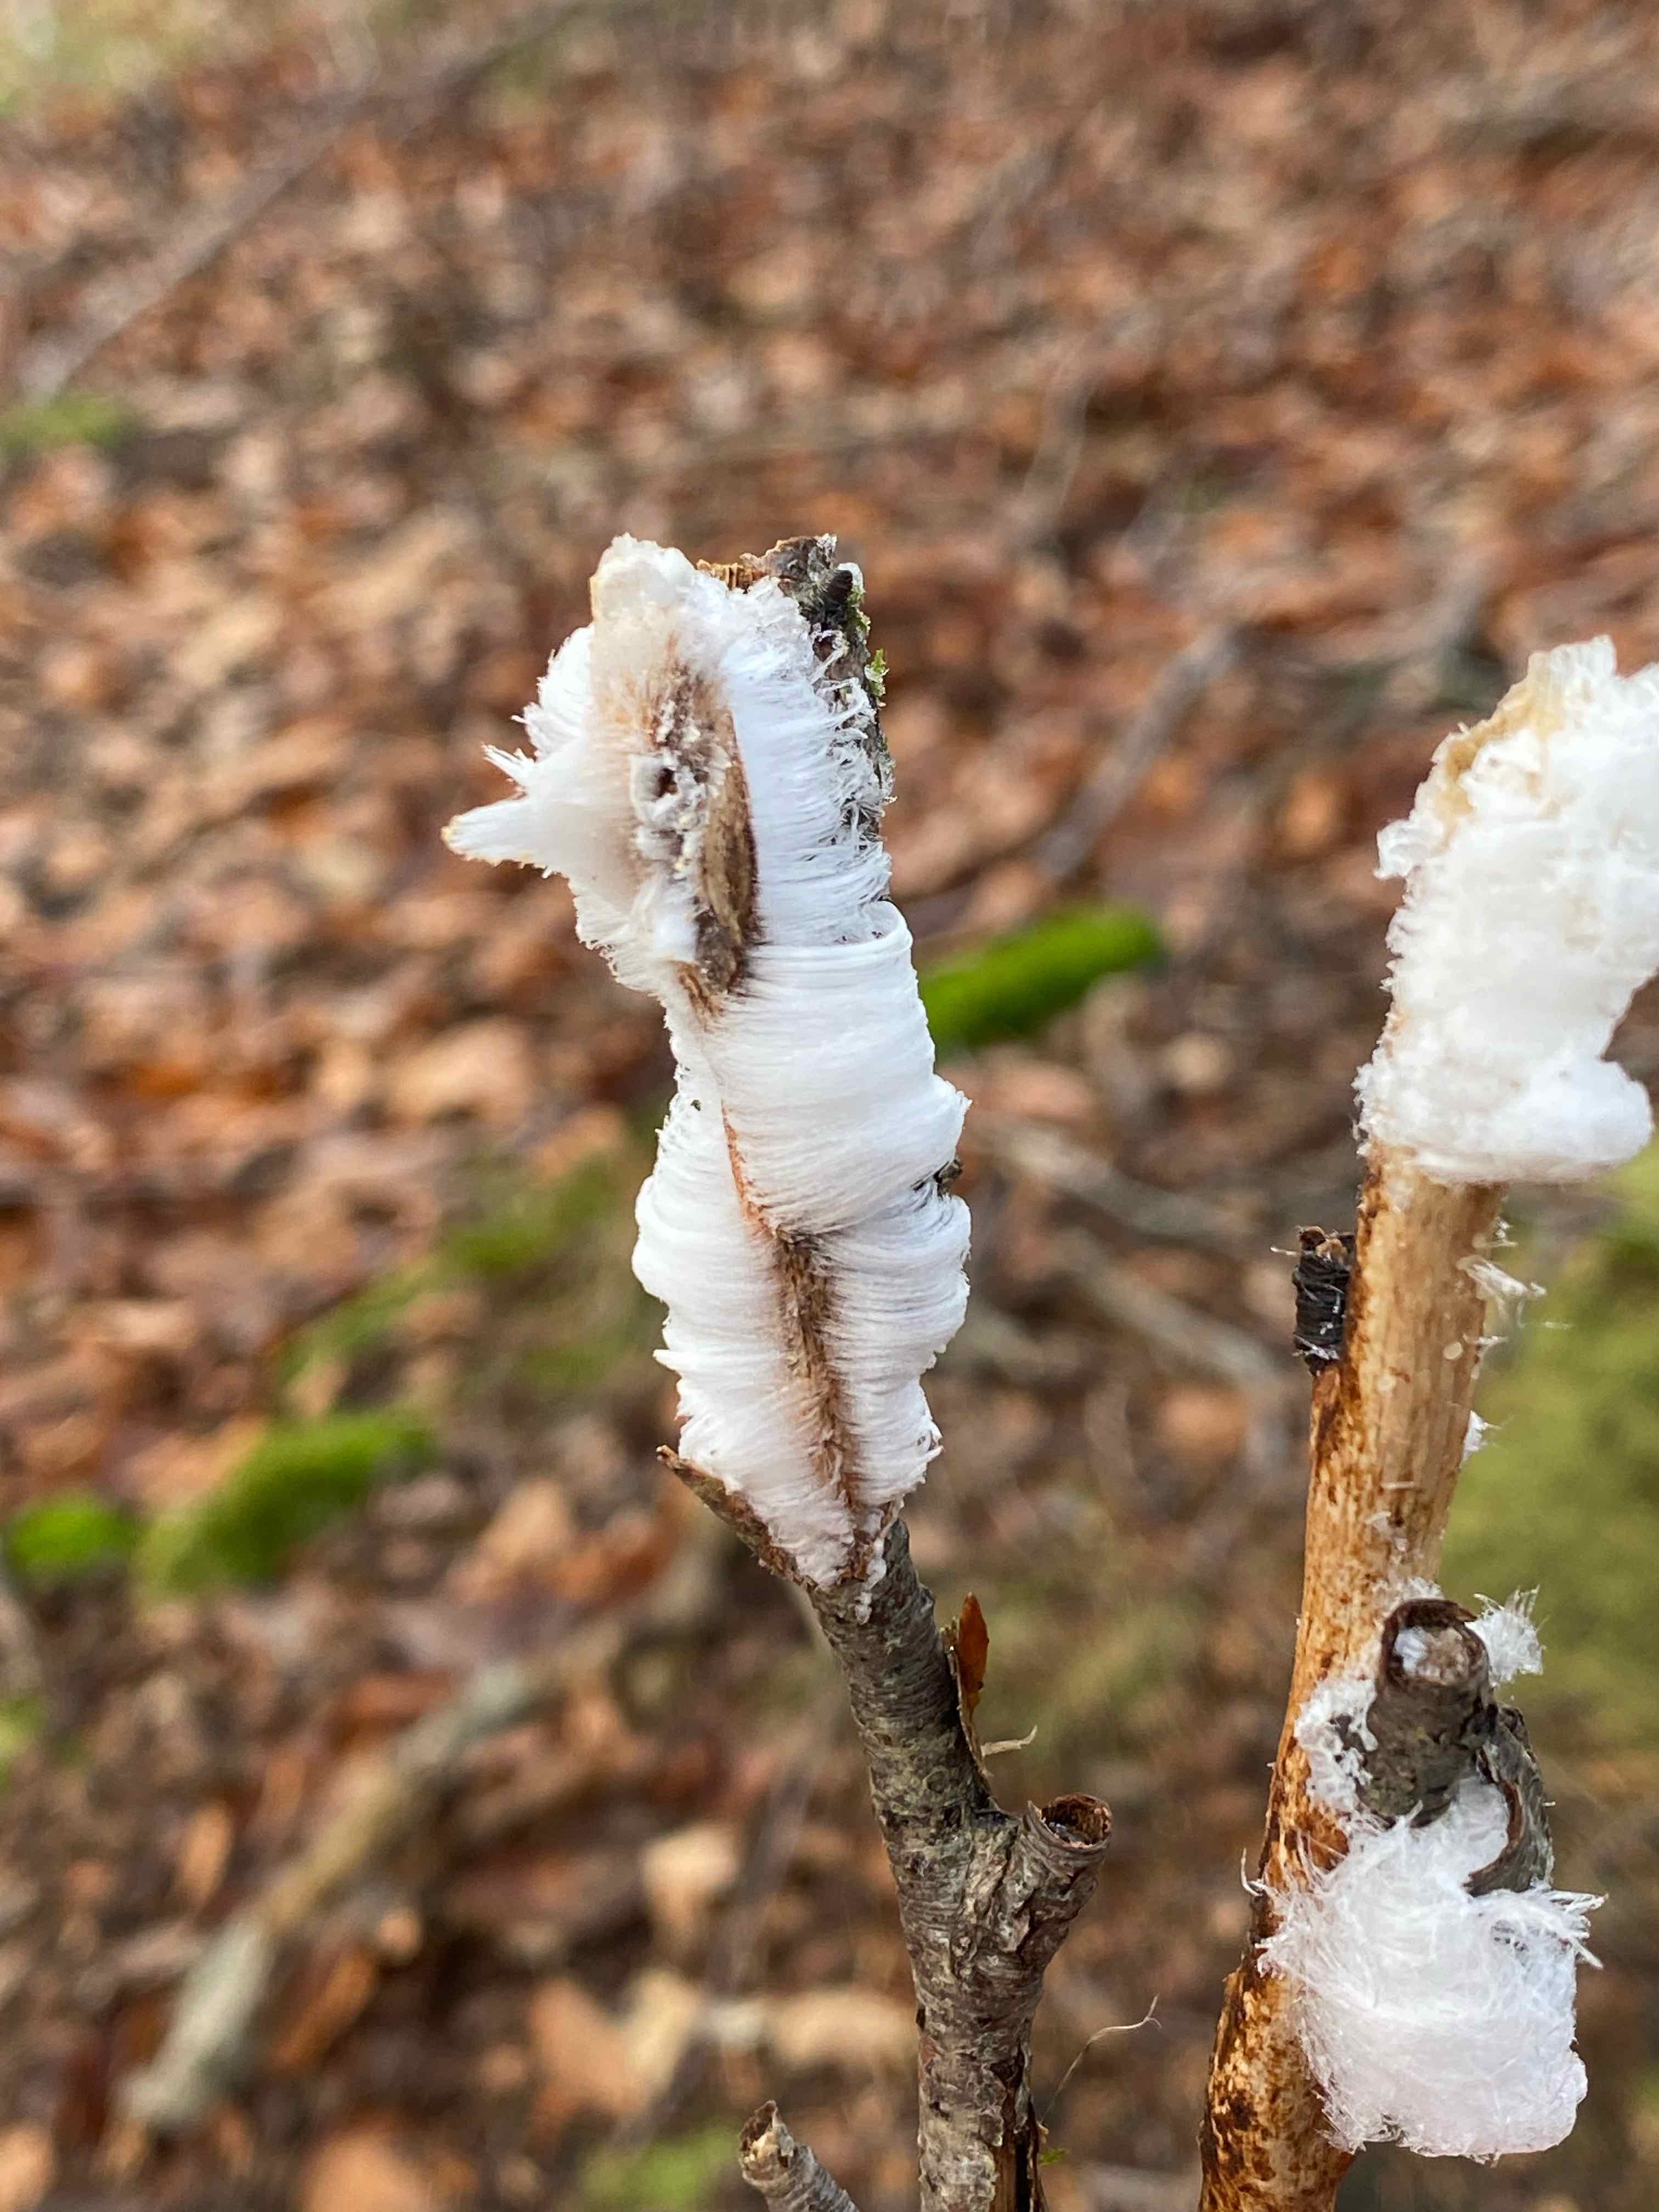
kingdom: Fungi
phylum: Basidiomycota
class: Tremellomycetes
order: Tremellales
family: Exidiaceae
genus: Exidiopsis
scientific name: Exidiopsis effusa
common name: smuk bævrehinde
